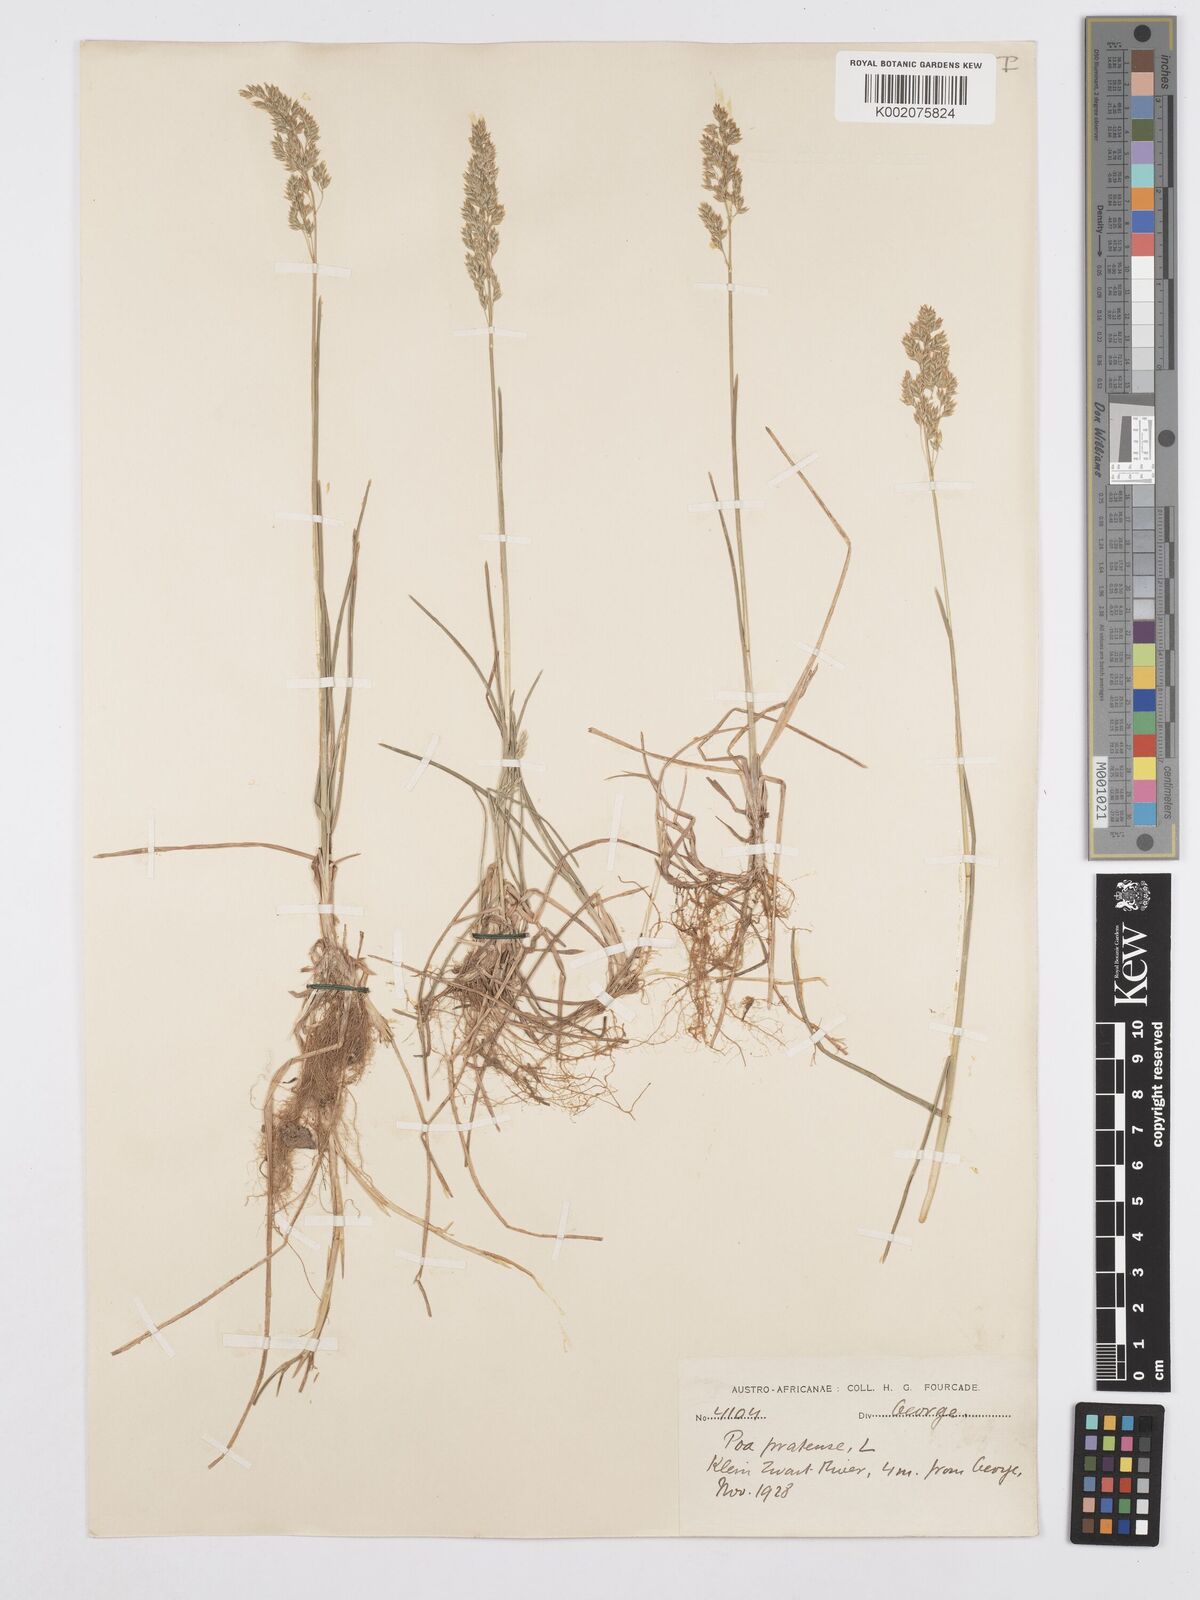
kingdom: Plantae
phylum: Tracheophyta
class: Liliopsida
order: Poales
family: Poaceae
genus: Poa
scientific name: Poa pratensis
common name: Kentucky bluegrass
